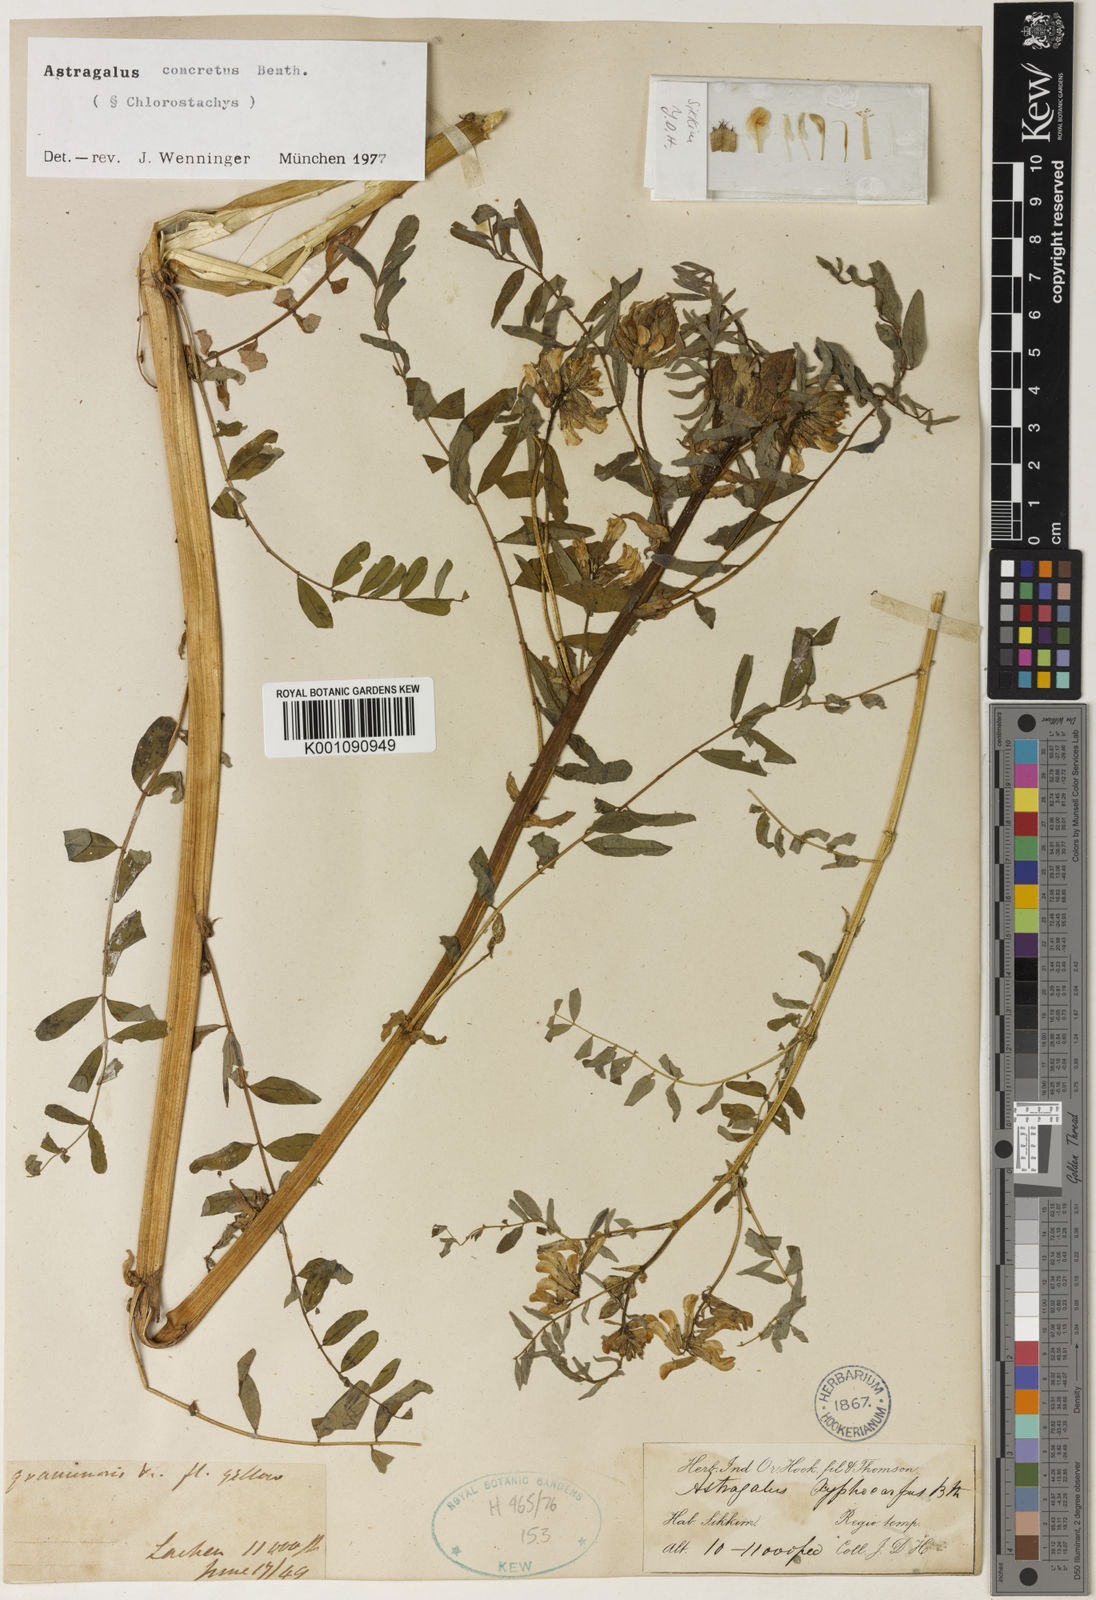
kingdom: Plantae
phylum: Tracheophyta
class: Magnoliopsida
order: Fabales
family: Fabaceae
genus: Astragalus
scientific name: Astragalus
